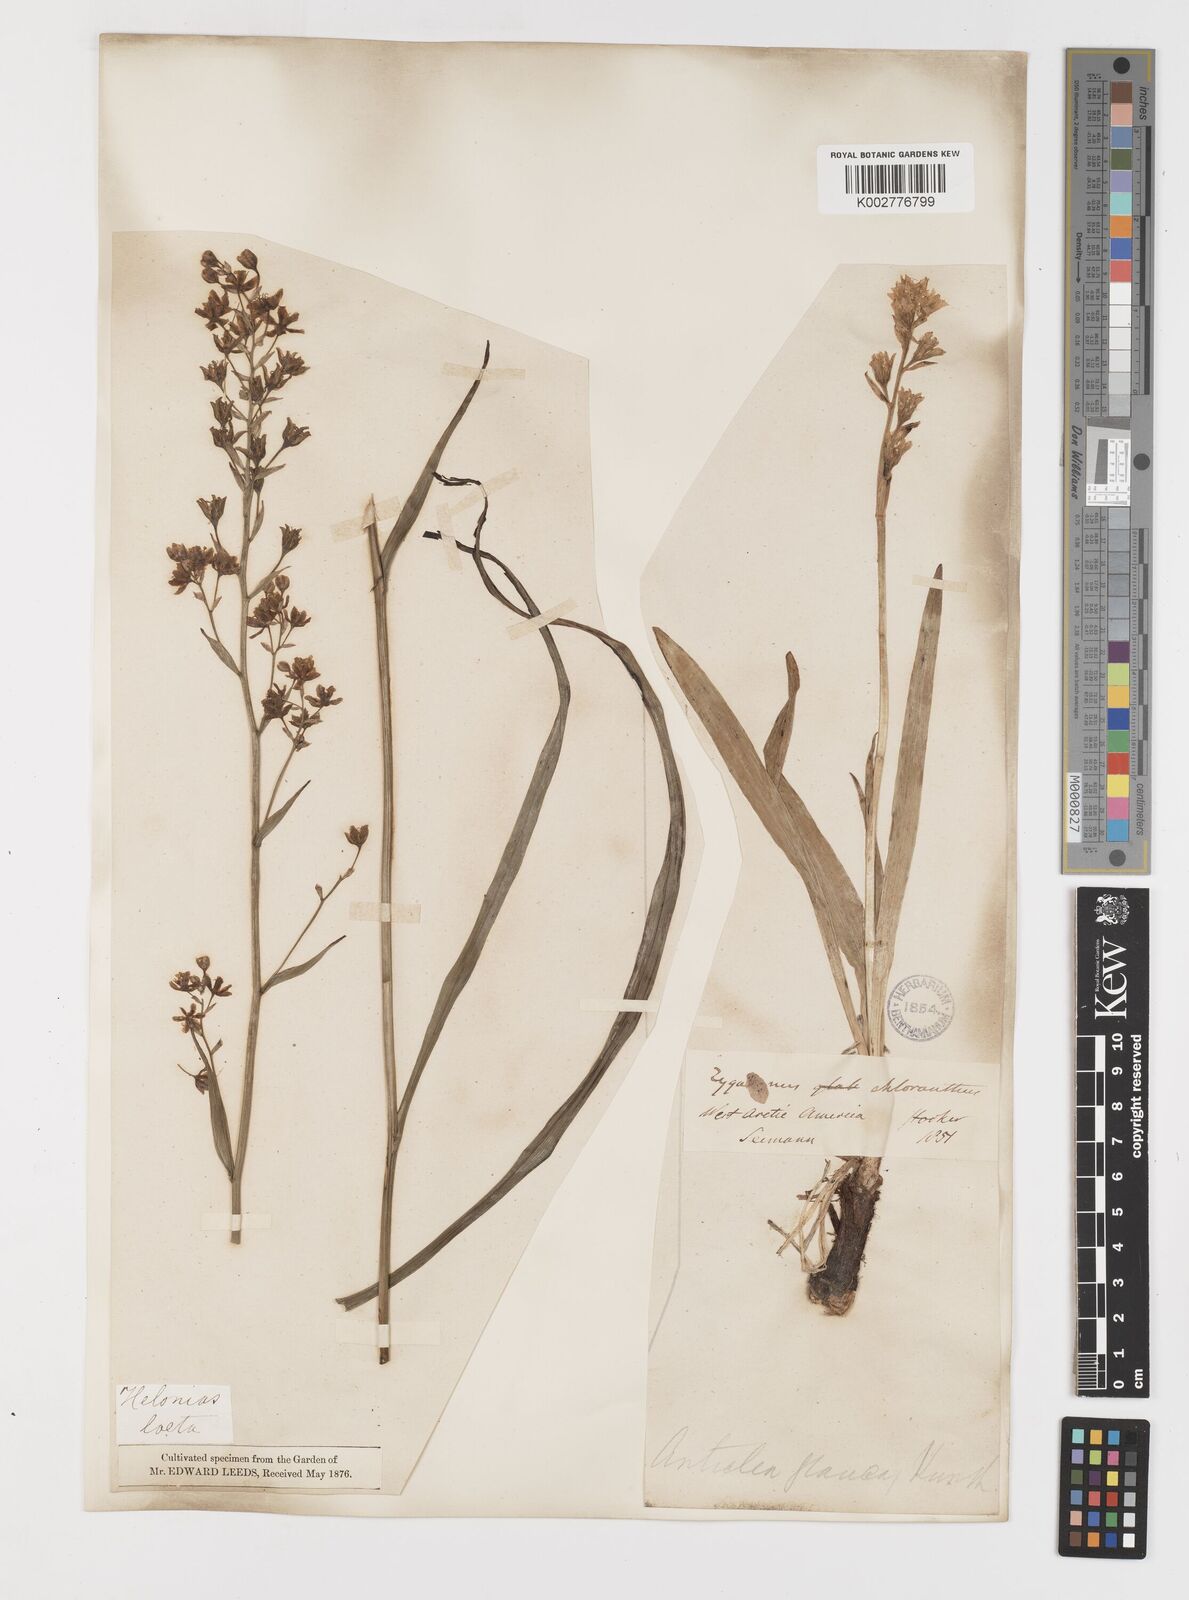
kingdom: Plantae
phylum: Tracheophyta
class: Liliopsida
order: Liliales
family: Melanthiaceae
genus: Anticlea
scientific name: Anticlea elegans
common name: Mountain death camas
